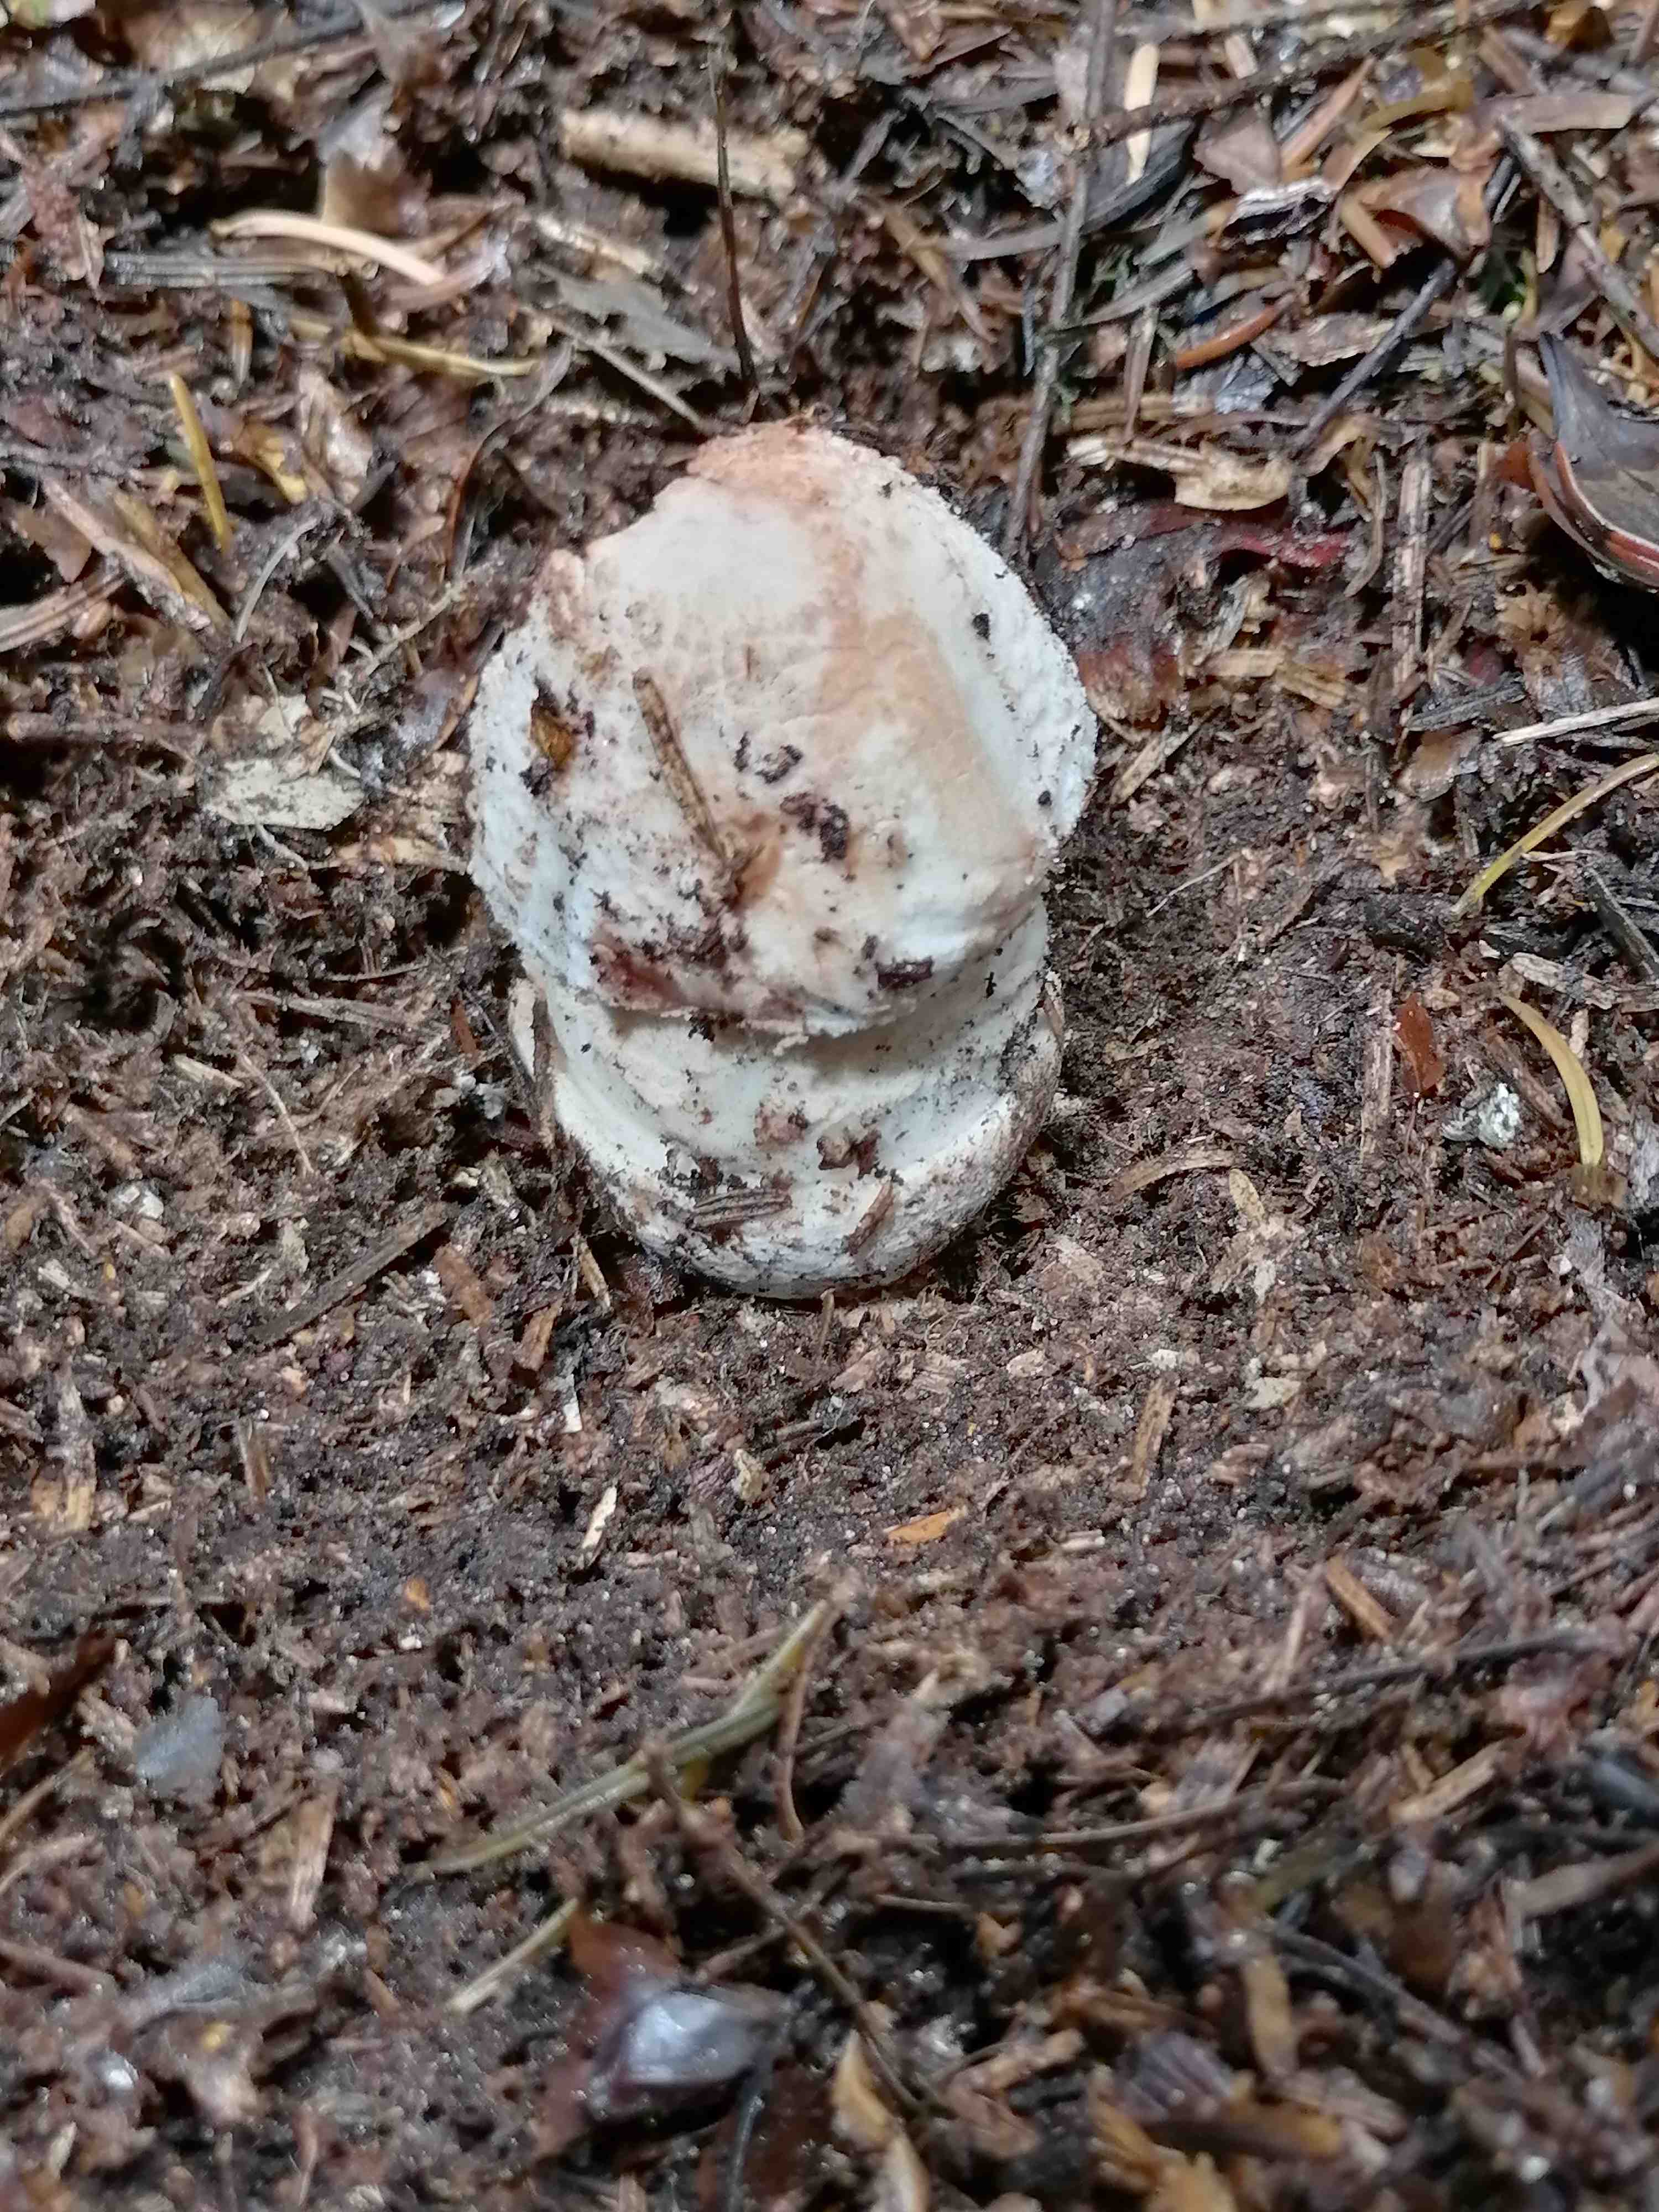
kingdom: Fungi
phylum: Basidiomycota
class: Agaricomycetes
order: Agaricales
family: Amanitaceae
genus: Amanita
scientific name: Amanita rubescens
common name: rødmende fluesvamp
